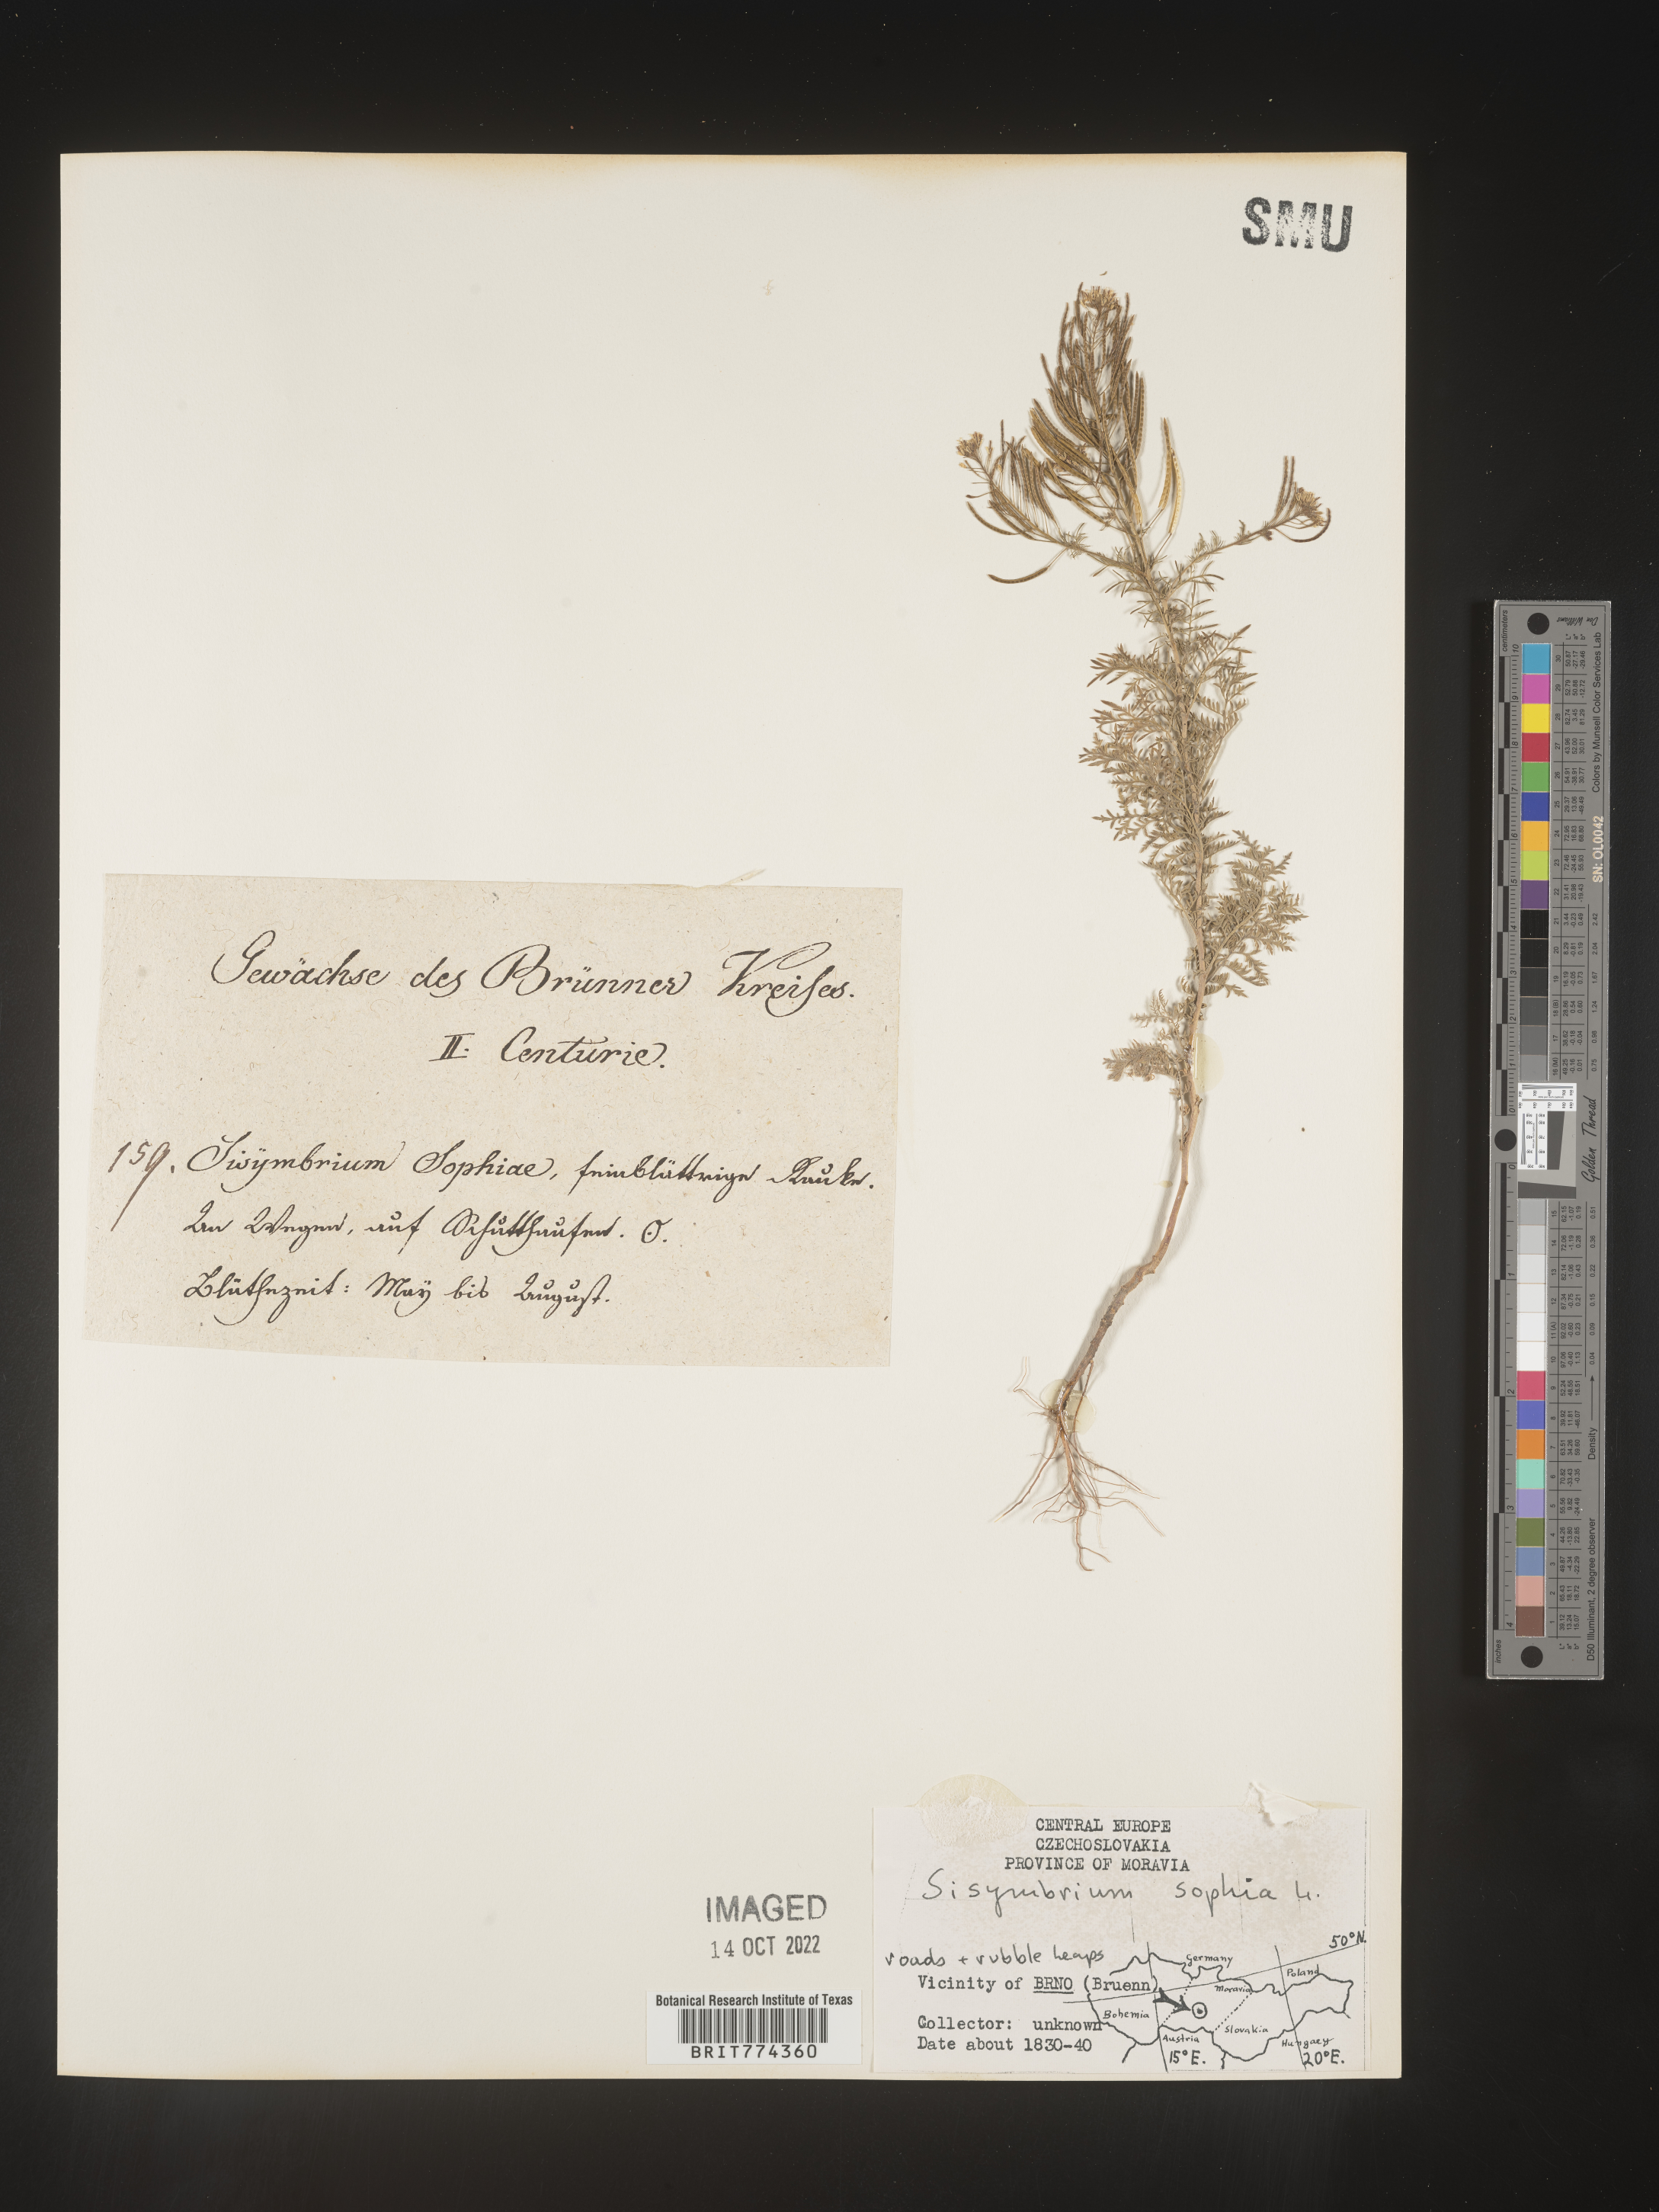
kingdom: Plantae
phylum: Tracheophyta
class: Magnoliopsida
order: Brassicales
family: Brassicaceae
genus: Descurainia
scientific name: Descurainia
